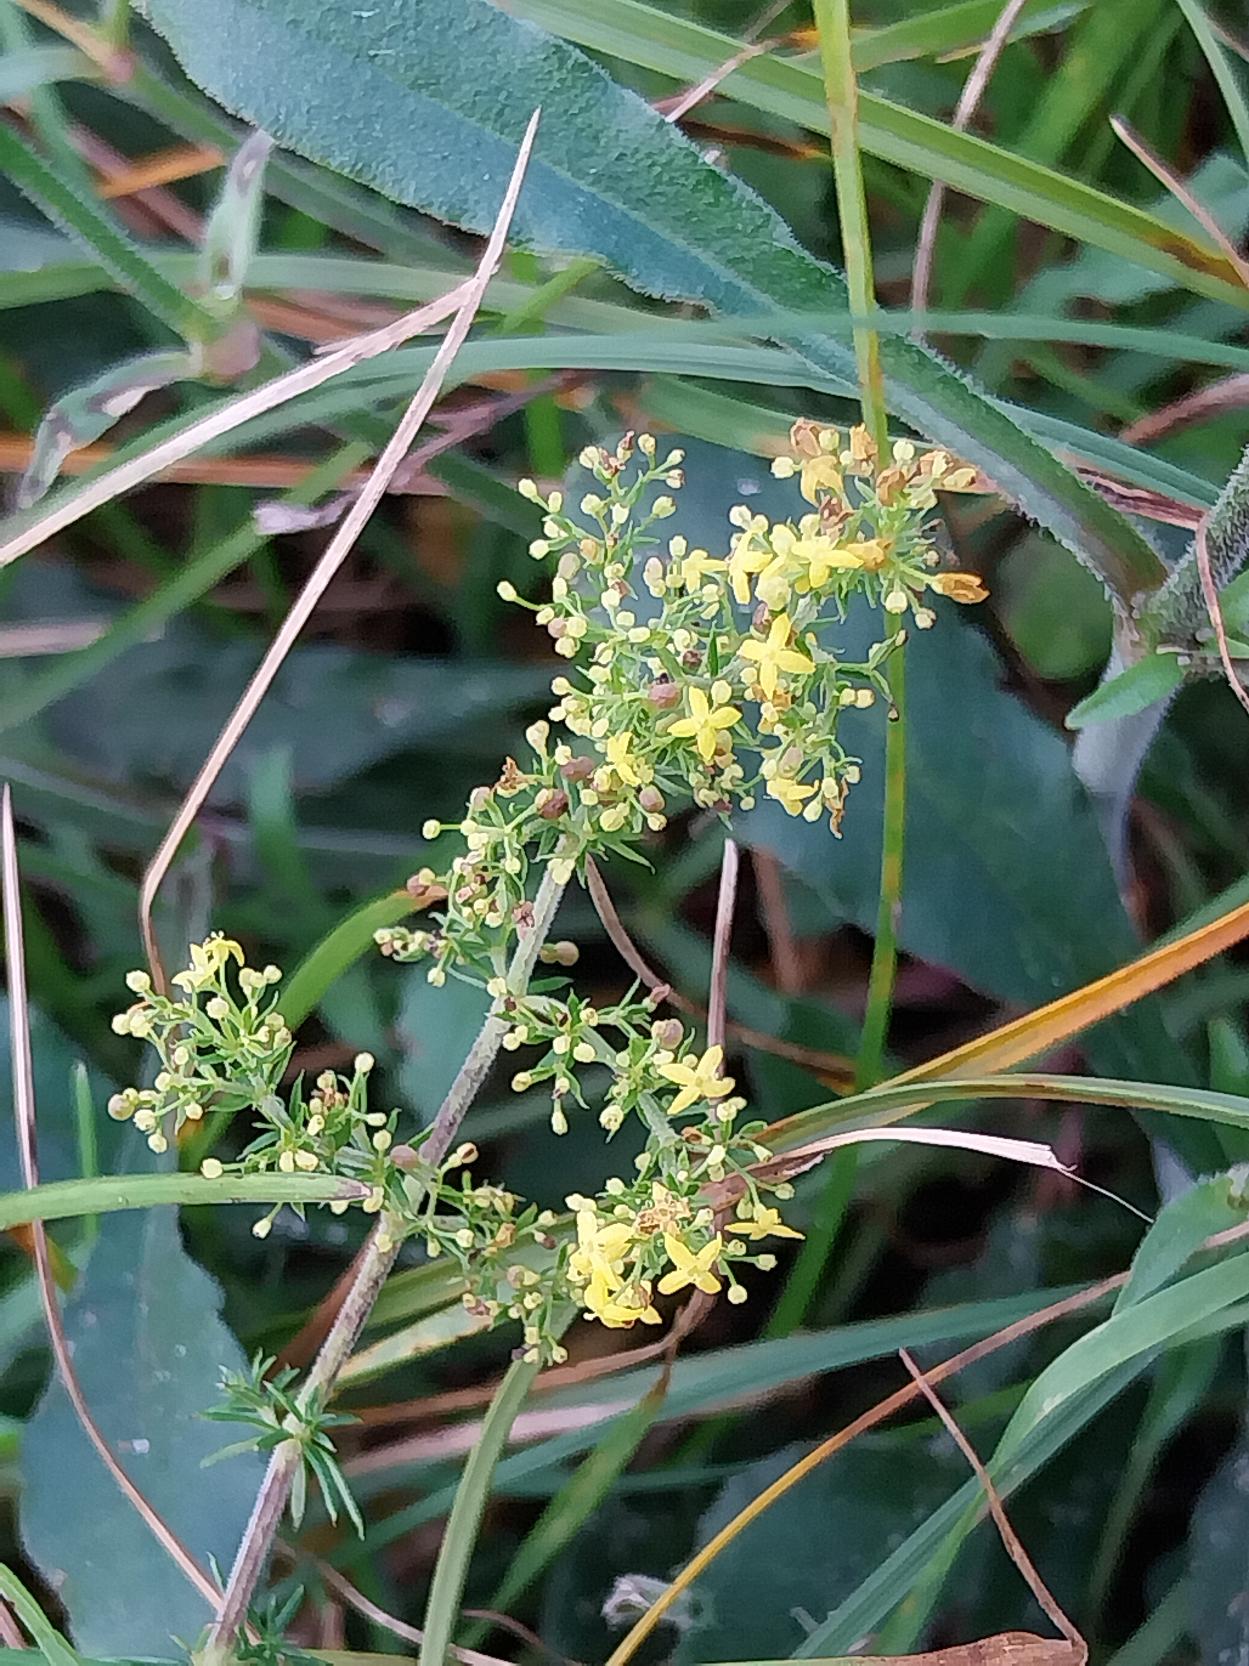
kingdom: Plantae
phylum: Tracheophyta
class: Magnoliopsida
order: Gentianales
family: Rubiaceae
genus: Galium
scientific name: Galium verum
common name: Gul snerre
